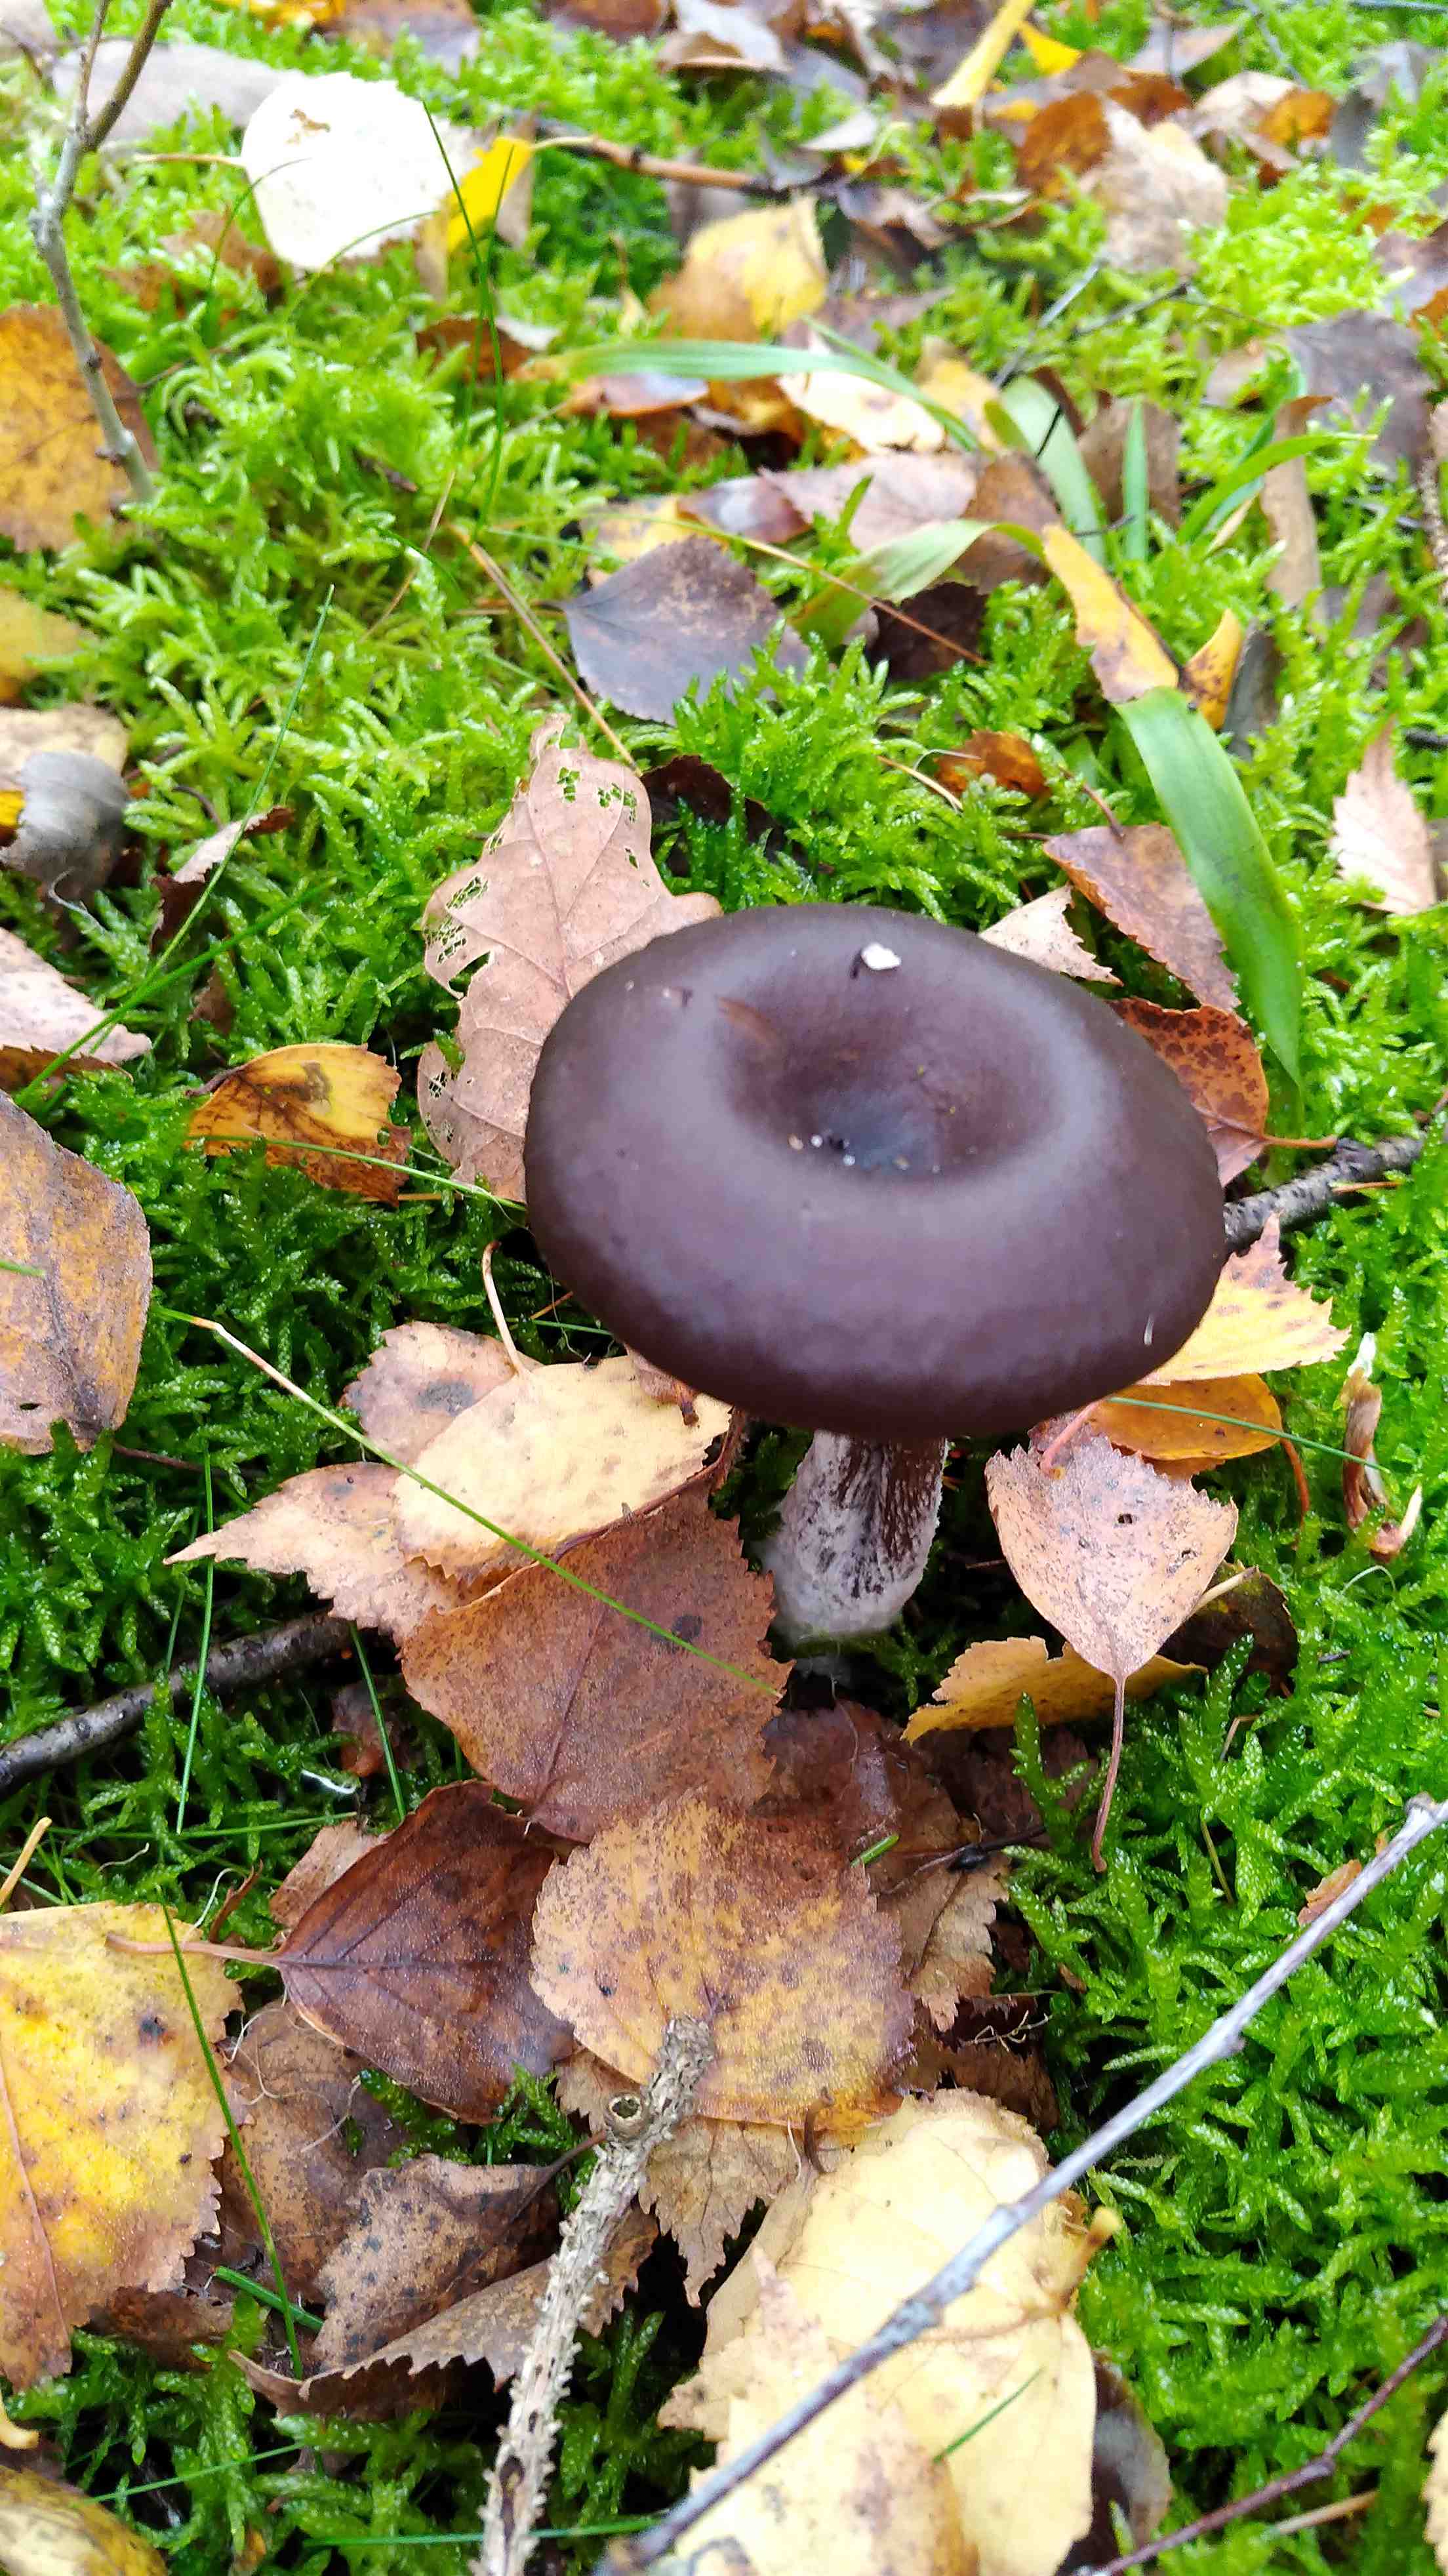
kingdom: Fungi
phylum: Basidiomycota
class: Agaricomycetes
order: Agaricales
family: Pseudoclitocybaceae
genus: Pseudoclitocybe
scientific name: Pseudoclitocybe cyathiformis
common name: almindelig bægertragthat
